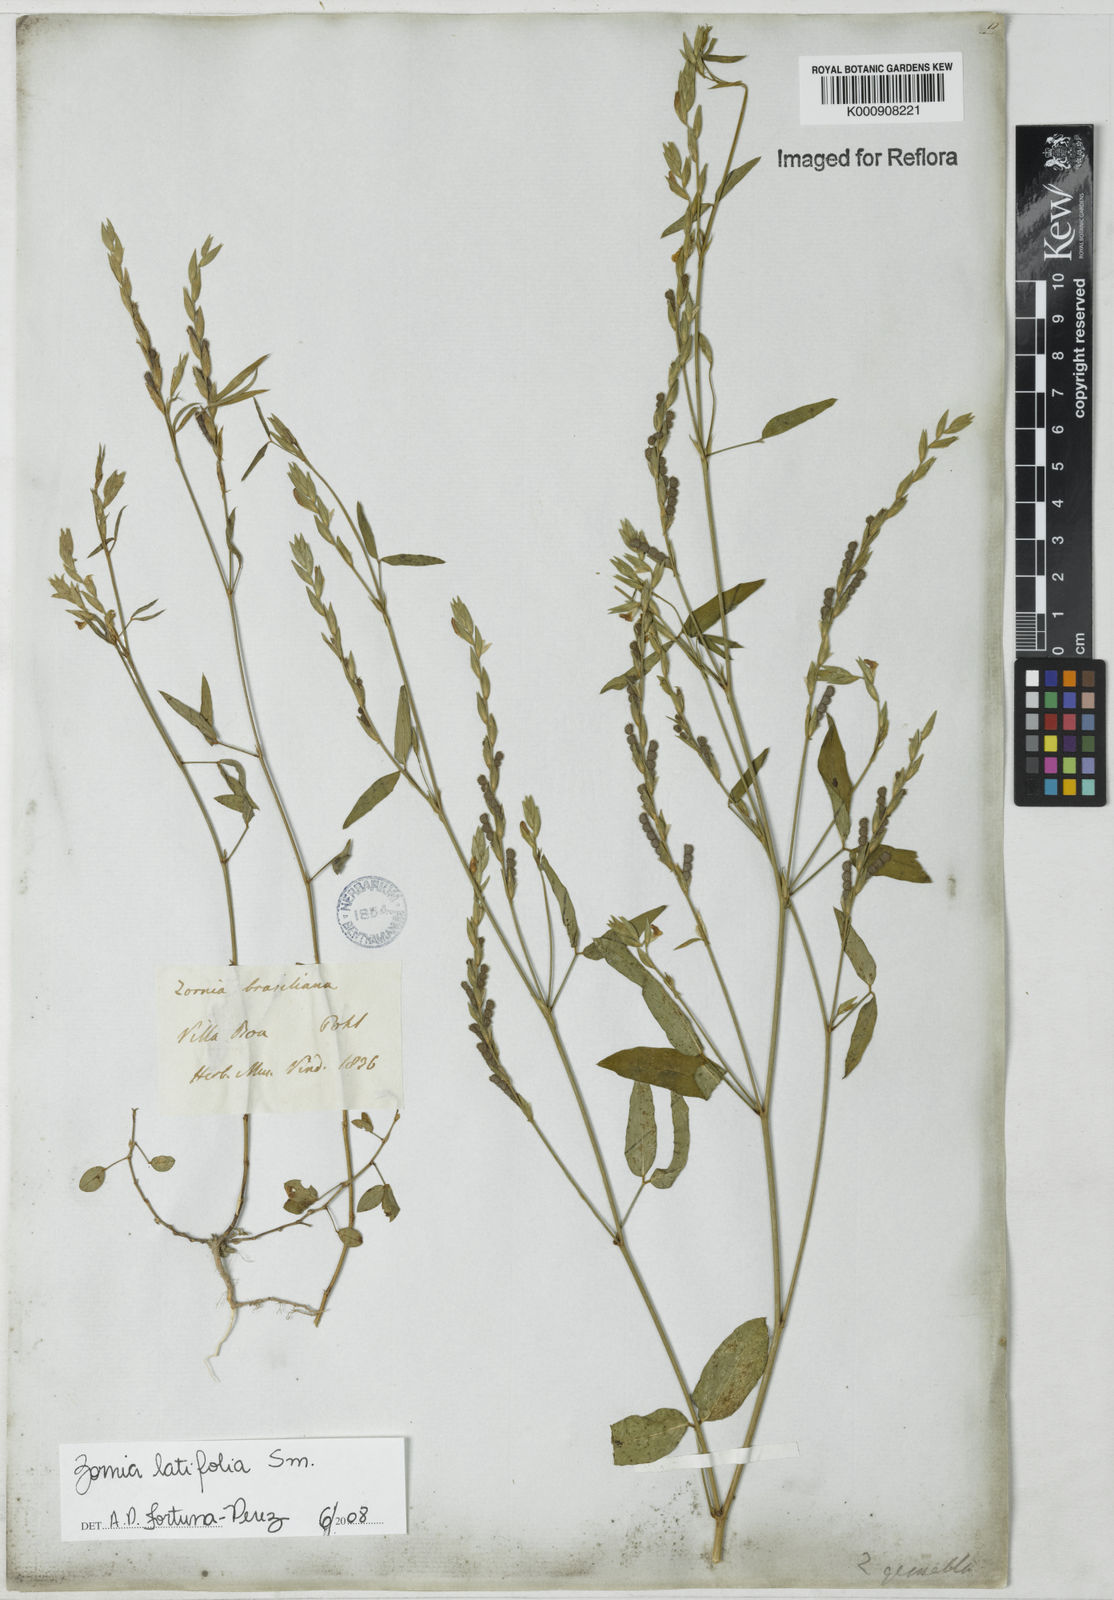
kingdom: Plantae
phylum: Tracheophyta
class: Magnoliopsida
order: Fabales
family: Fabaceae
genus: Zornia
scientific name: Zornia latifolia
